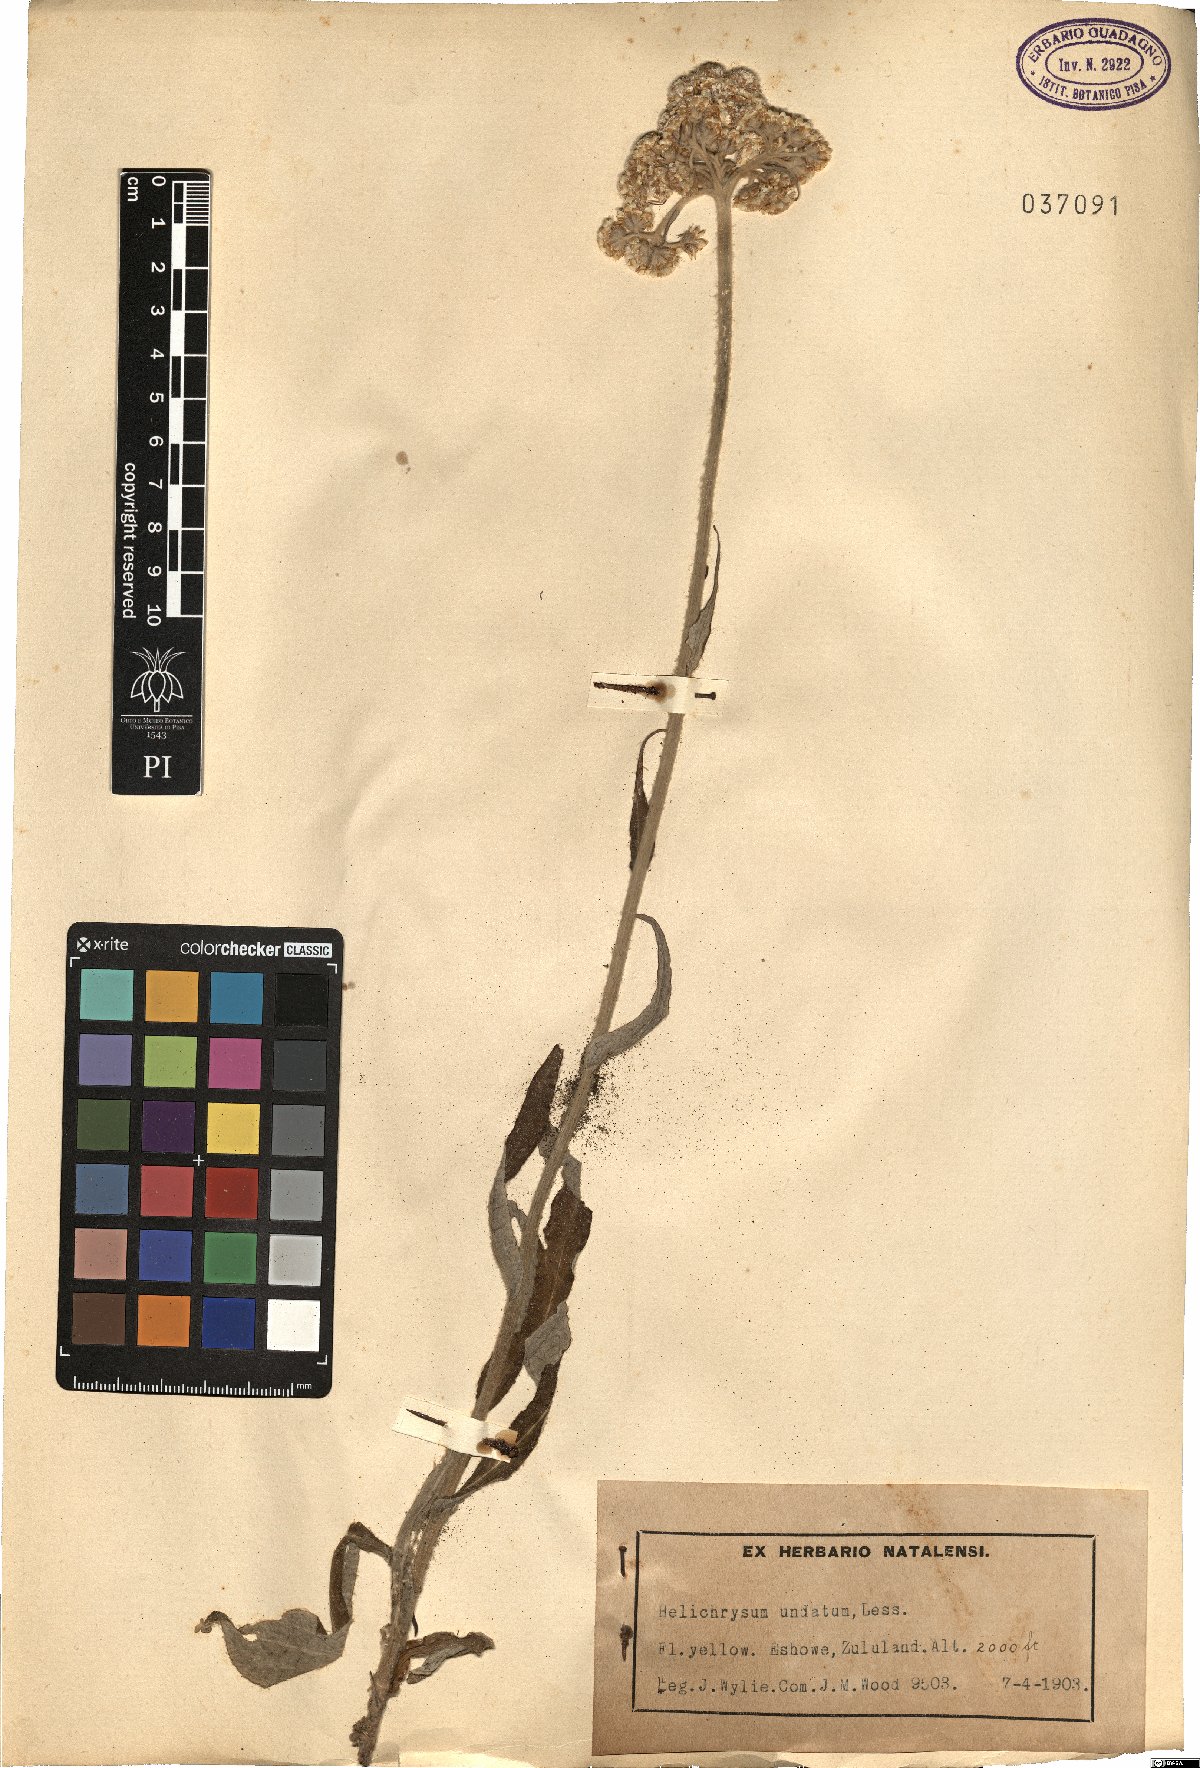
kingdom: Plantae
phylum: Tracheophyta
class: Magnoliopsida
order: Asterales
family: Asteraceae
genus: Helichrysum
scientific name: Helichrysum nudifolium
